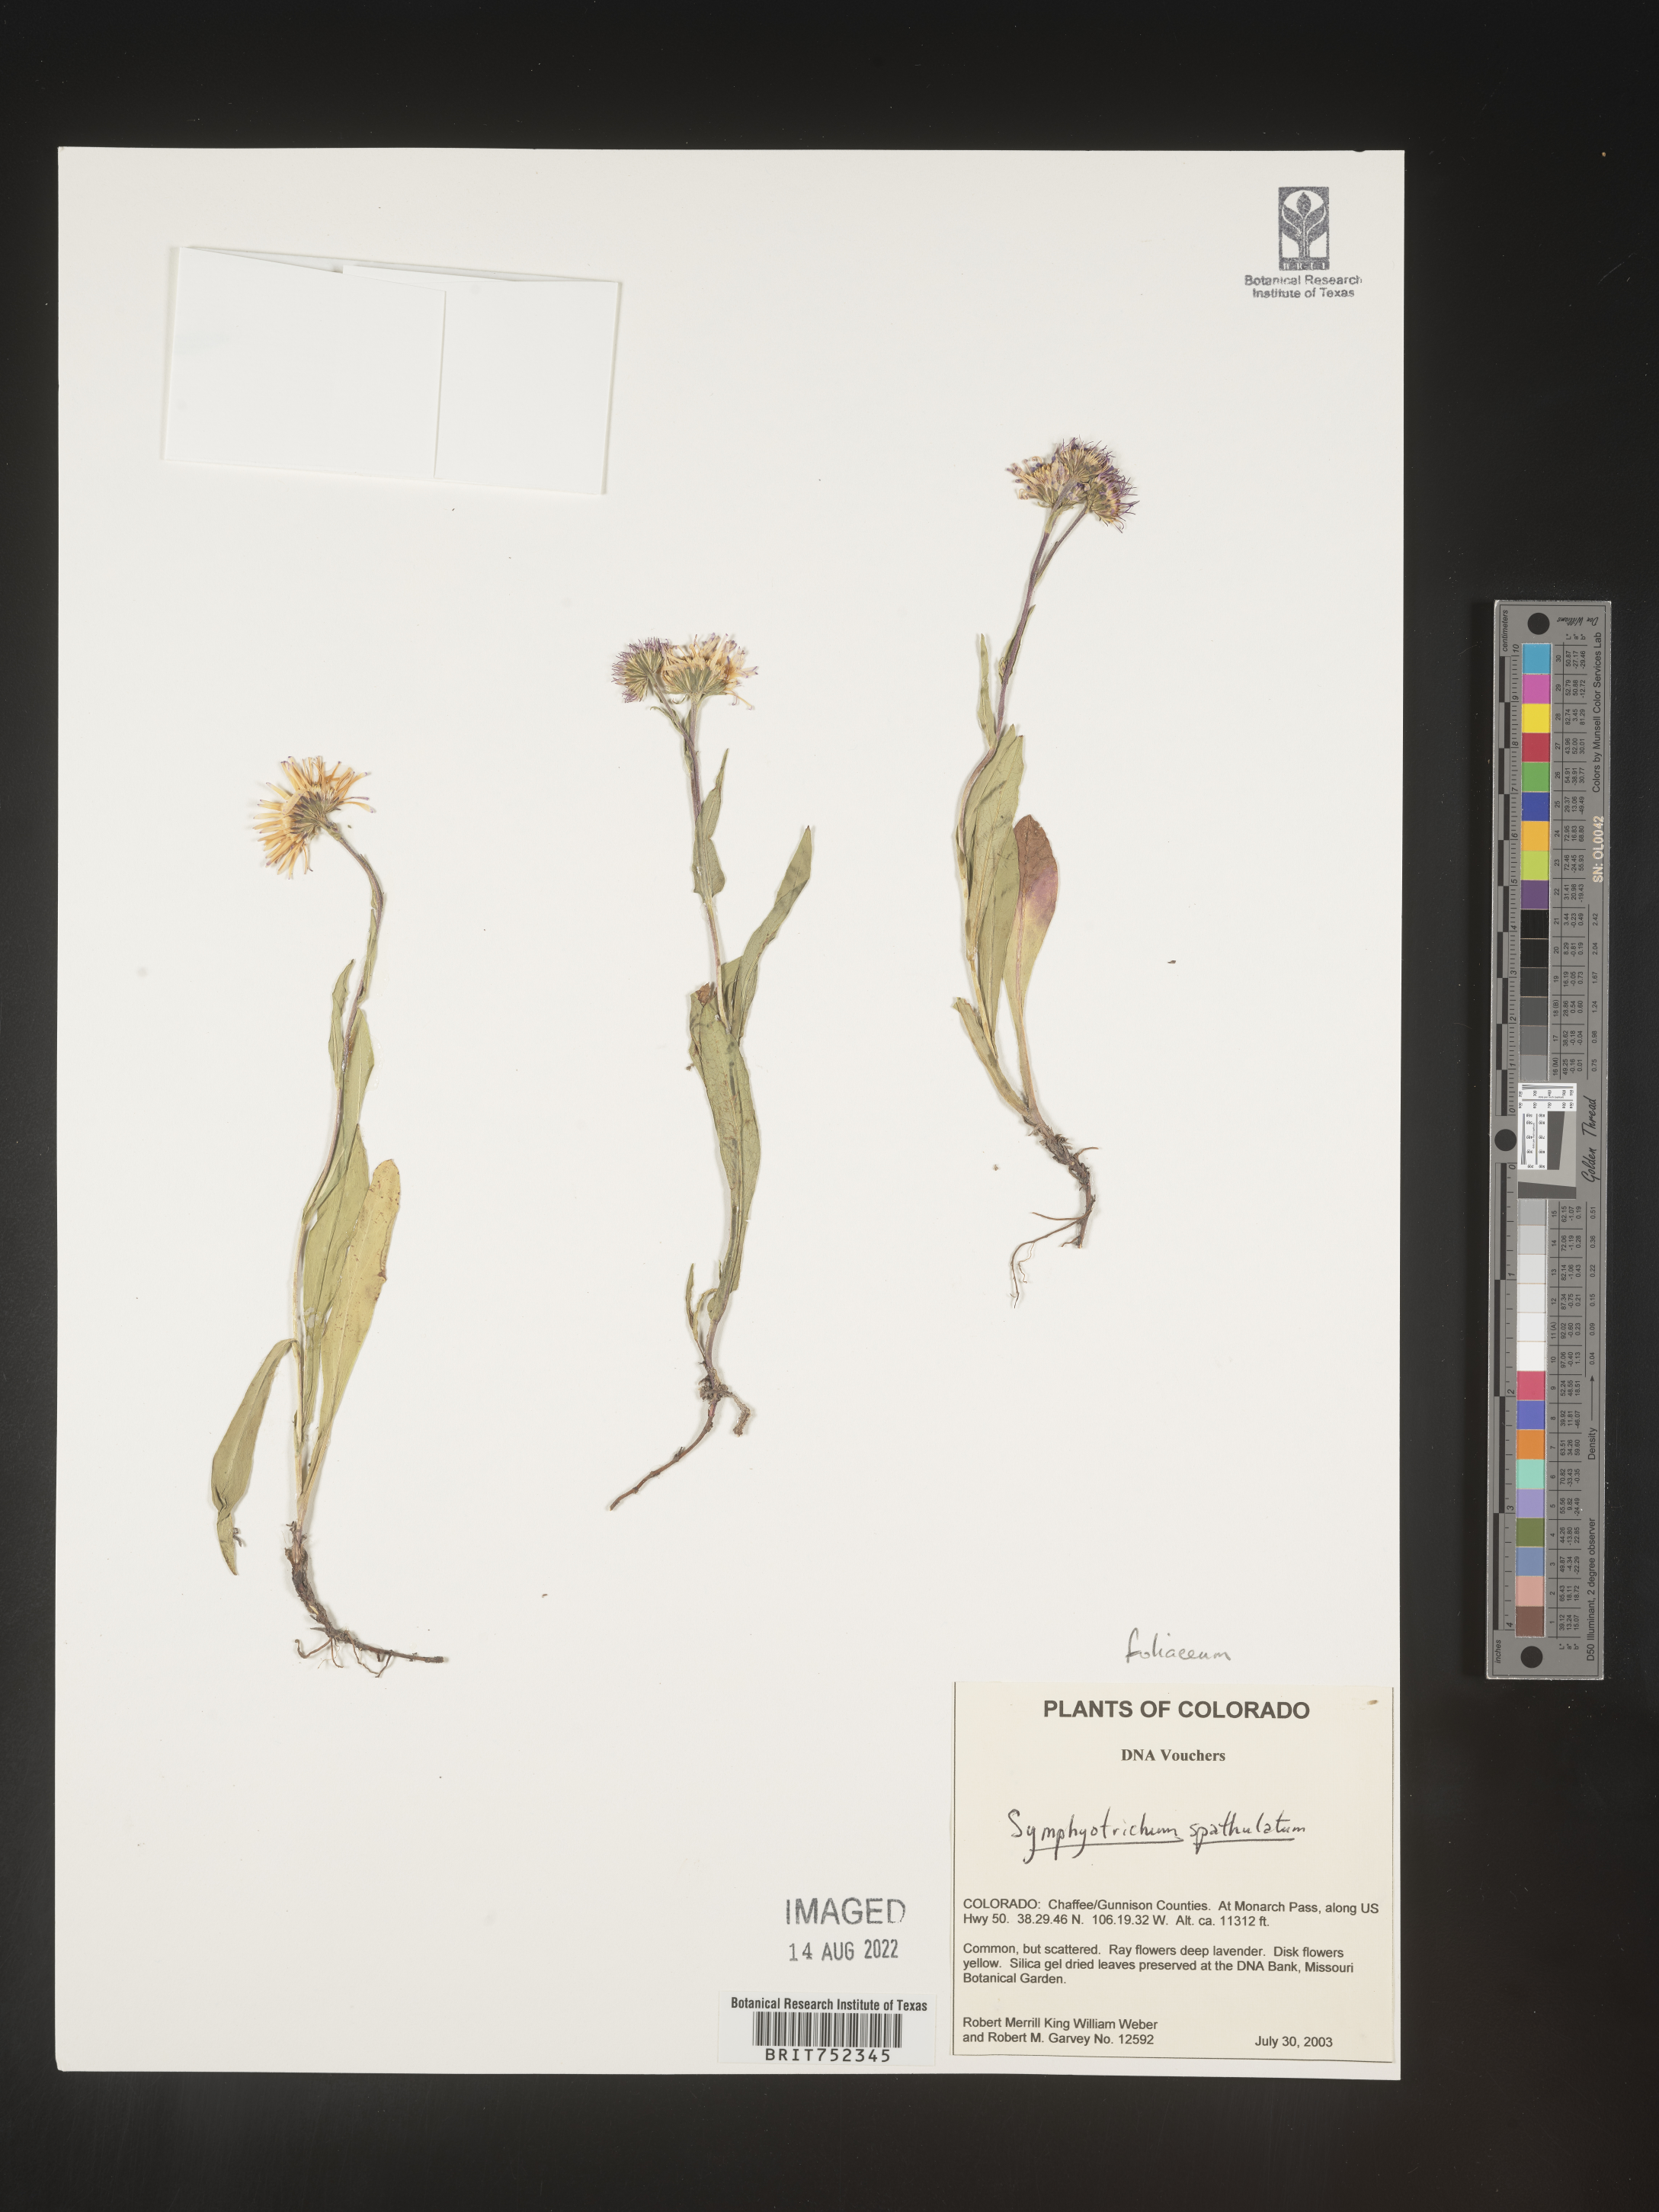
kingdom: Plantae
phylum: Tracheophyta
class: Magnoliopsida
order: Asterales
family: Asteraceae
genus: Symphyotrichum
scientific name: Symphyotrichum foliaceum
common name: Leafy aster
